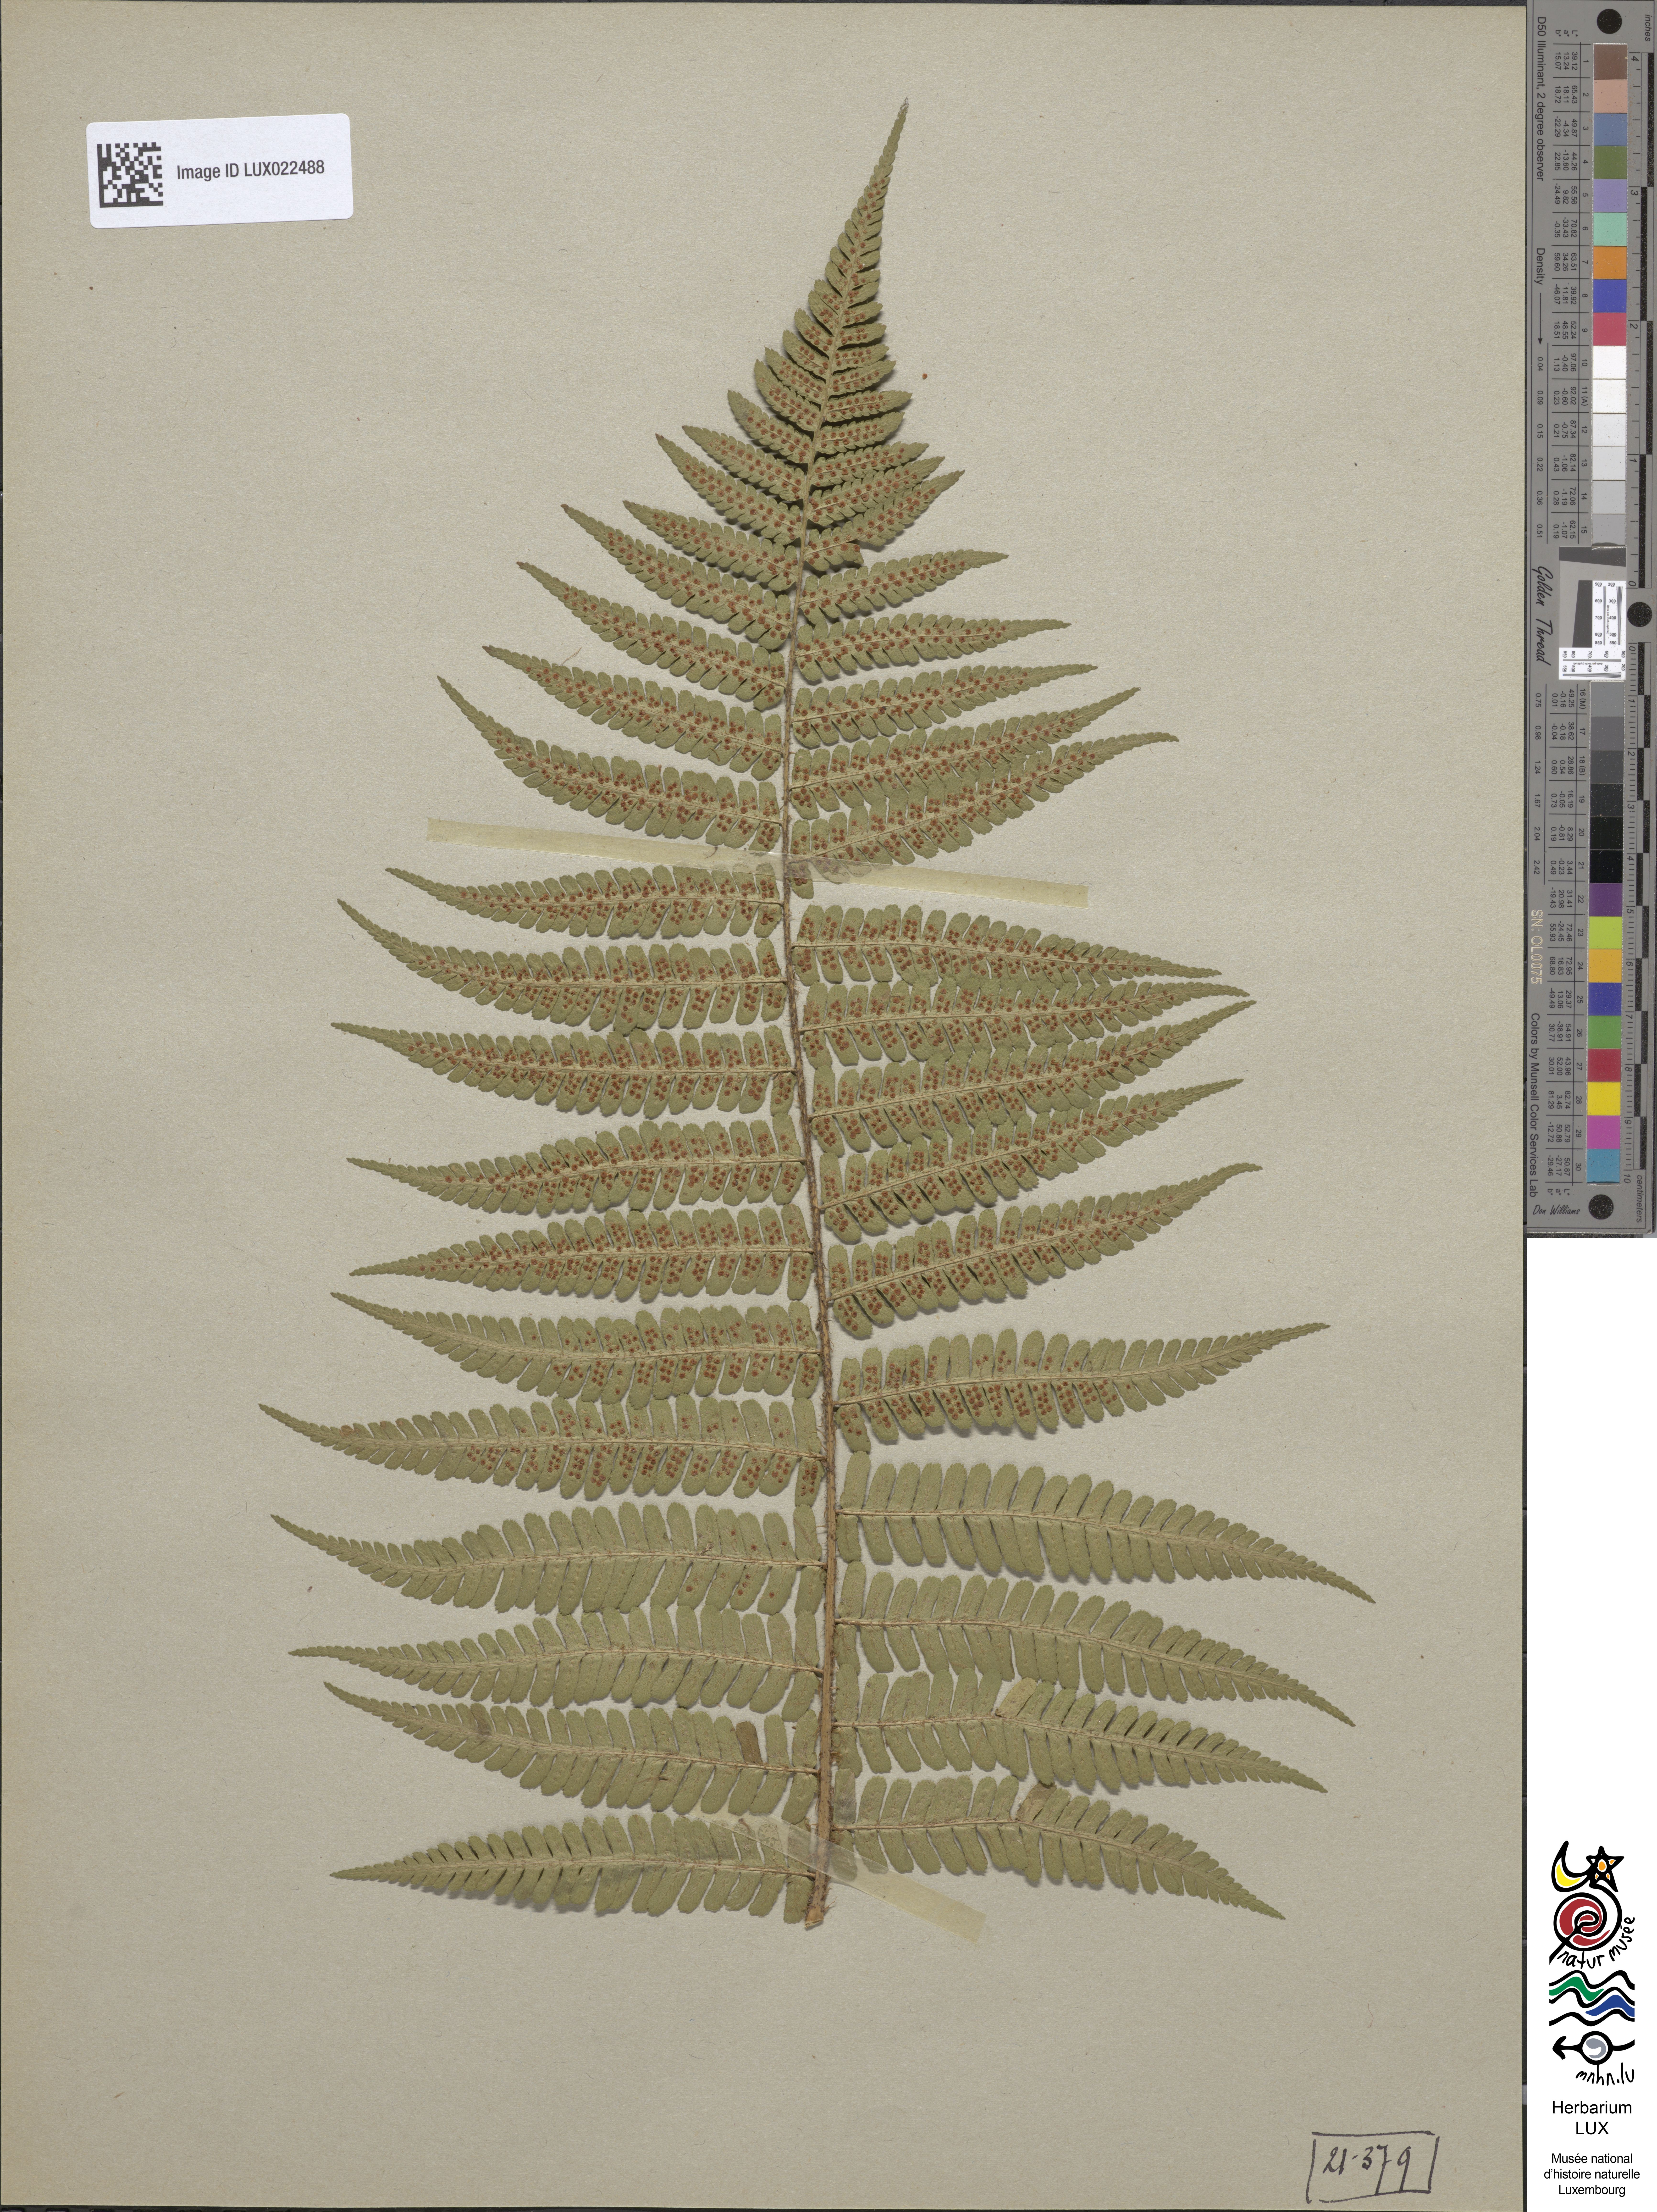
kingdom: Plantae
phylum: Tracheophyta
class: Polypodiopsida
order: Polypodiales
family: Dryopteridaceae
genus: Dryopteris
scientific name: Dryopteris borreri
